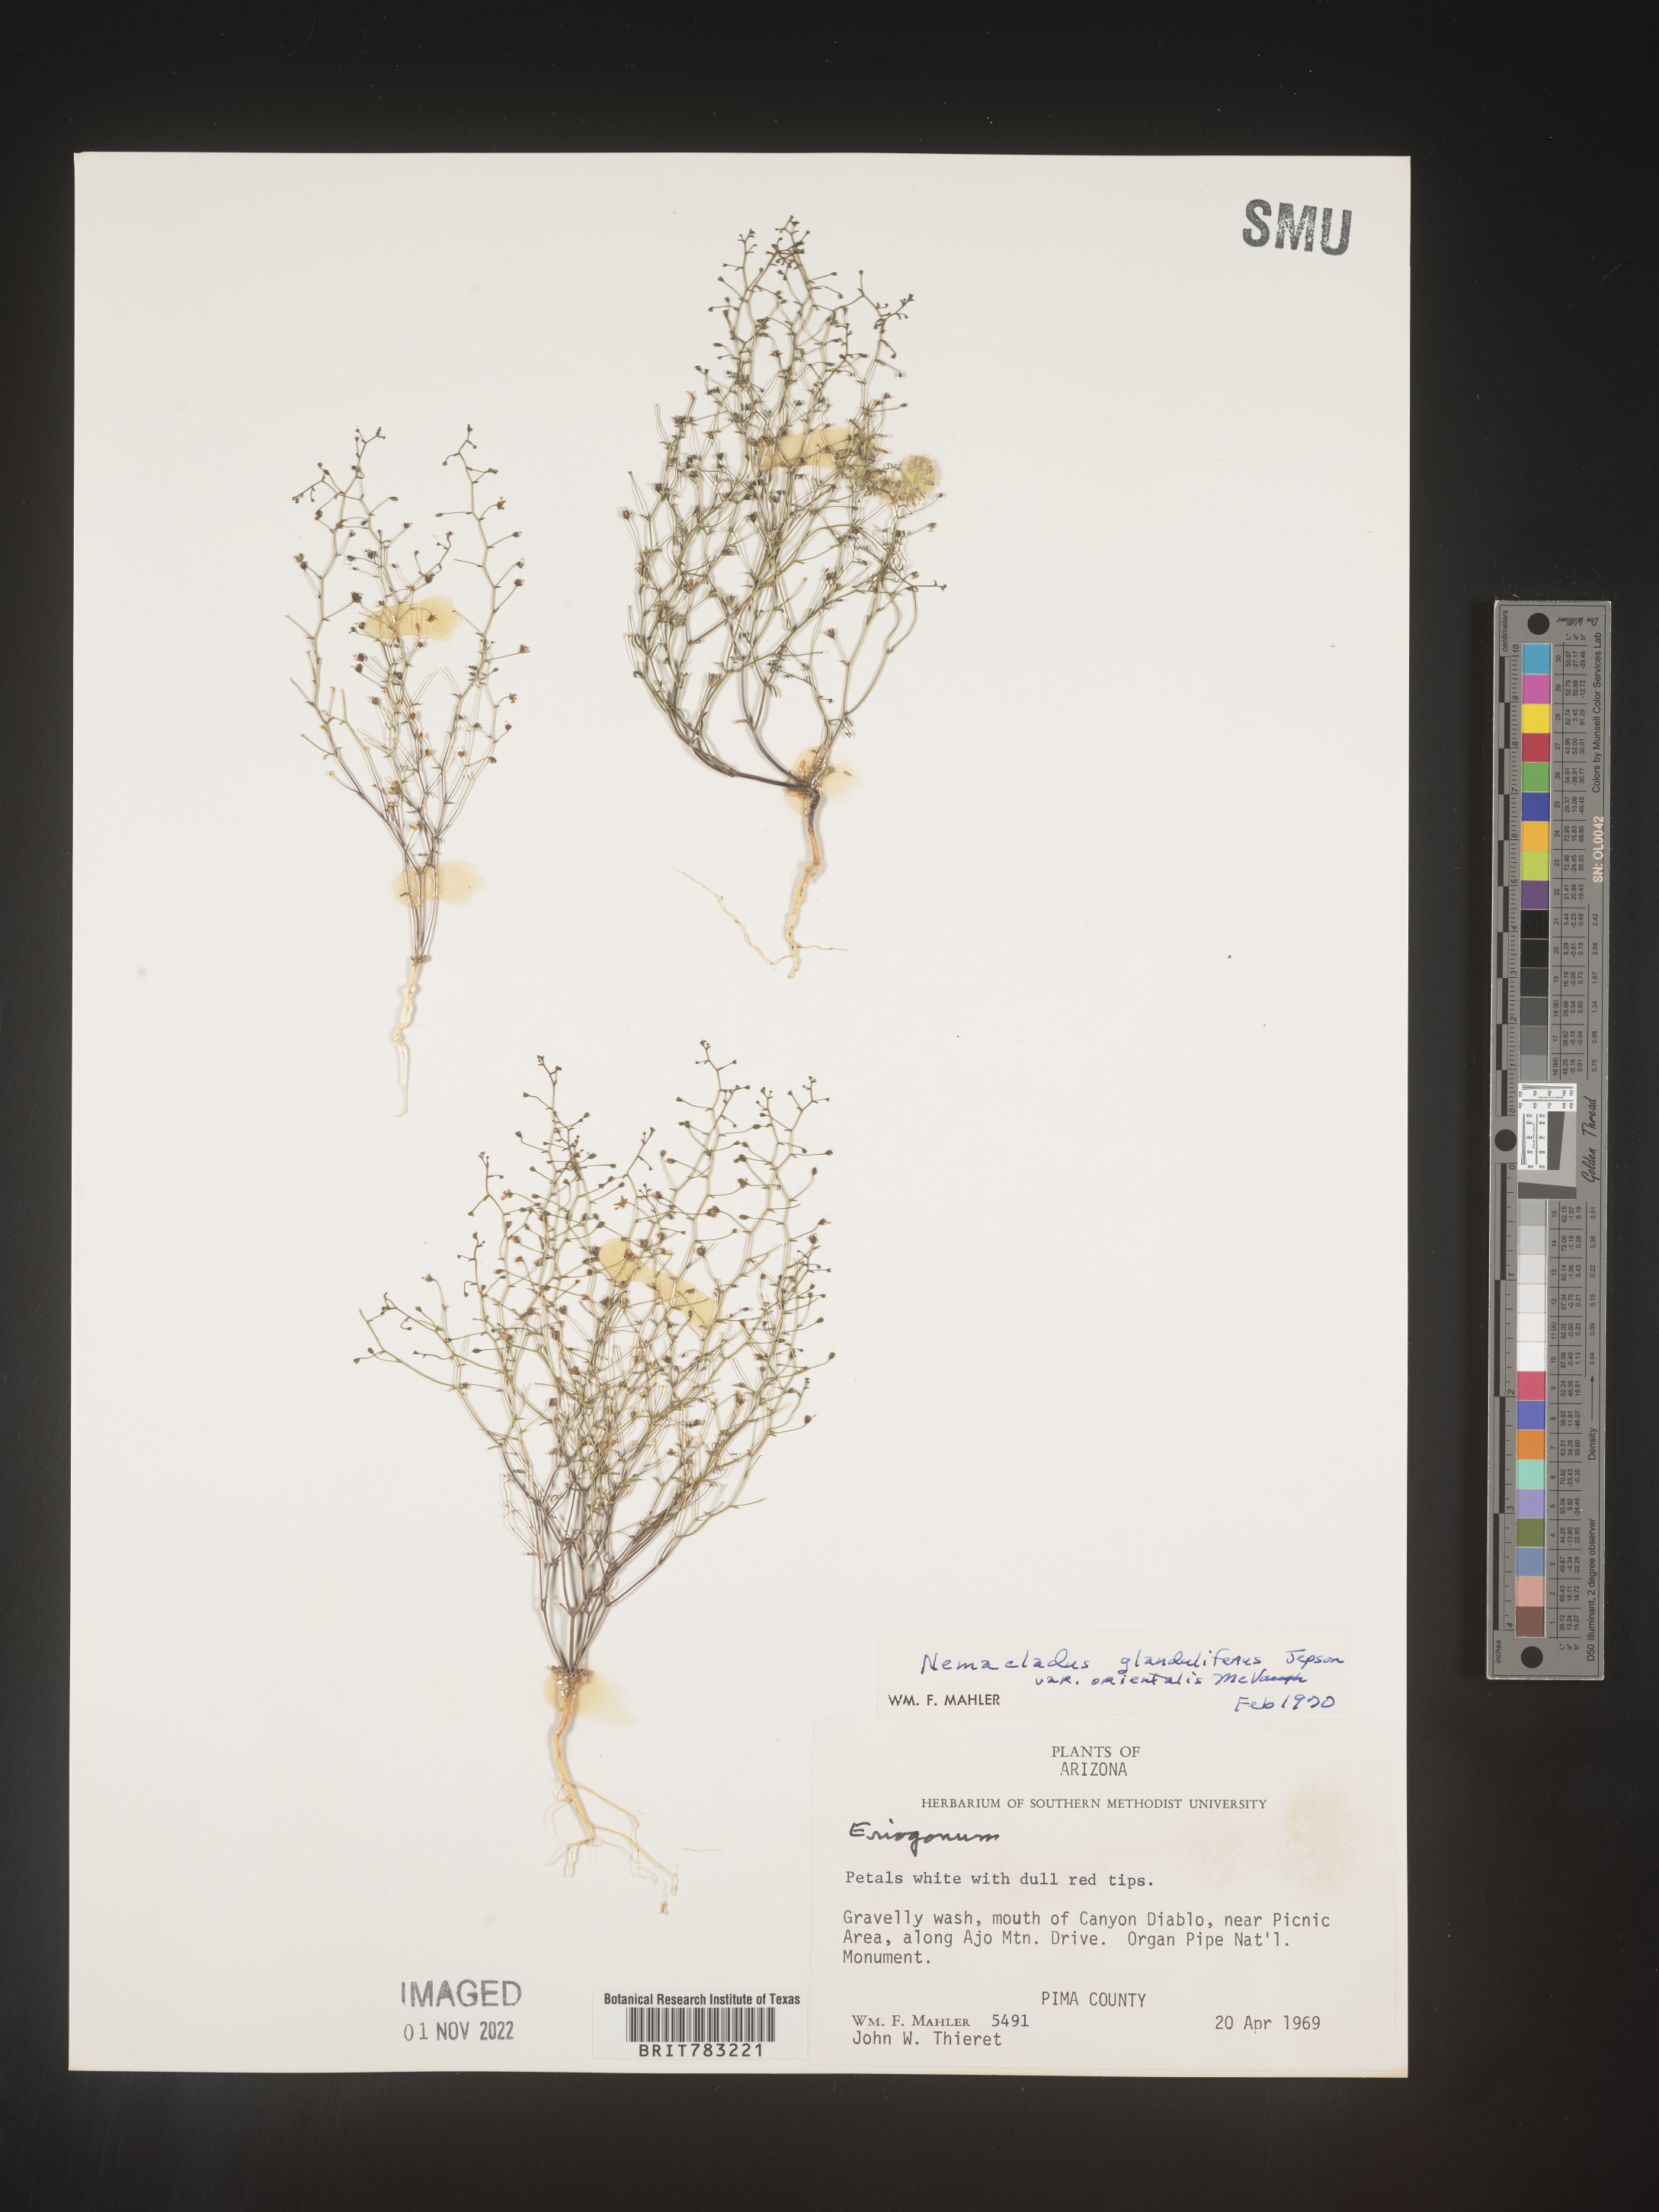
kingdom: Plantae
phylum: Tracheophyta
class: Magnoliopsida
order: Asterales
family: Campanulaceae
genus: Nemacladus
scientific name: Nemacladus
